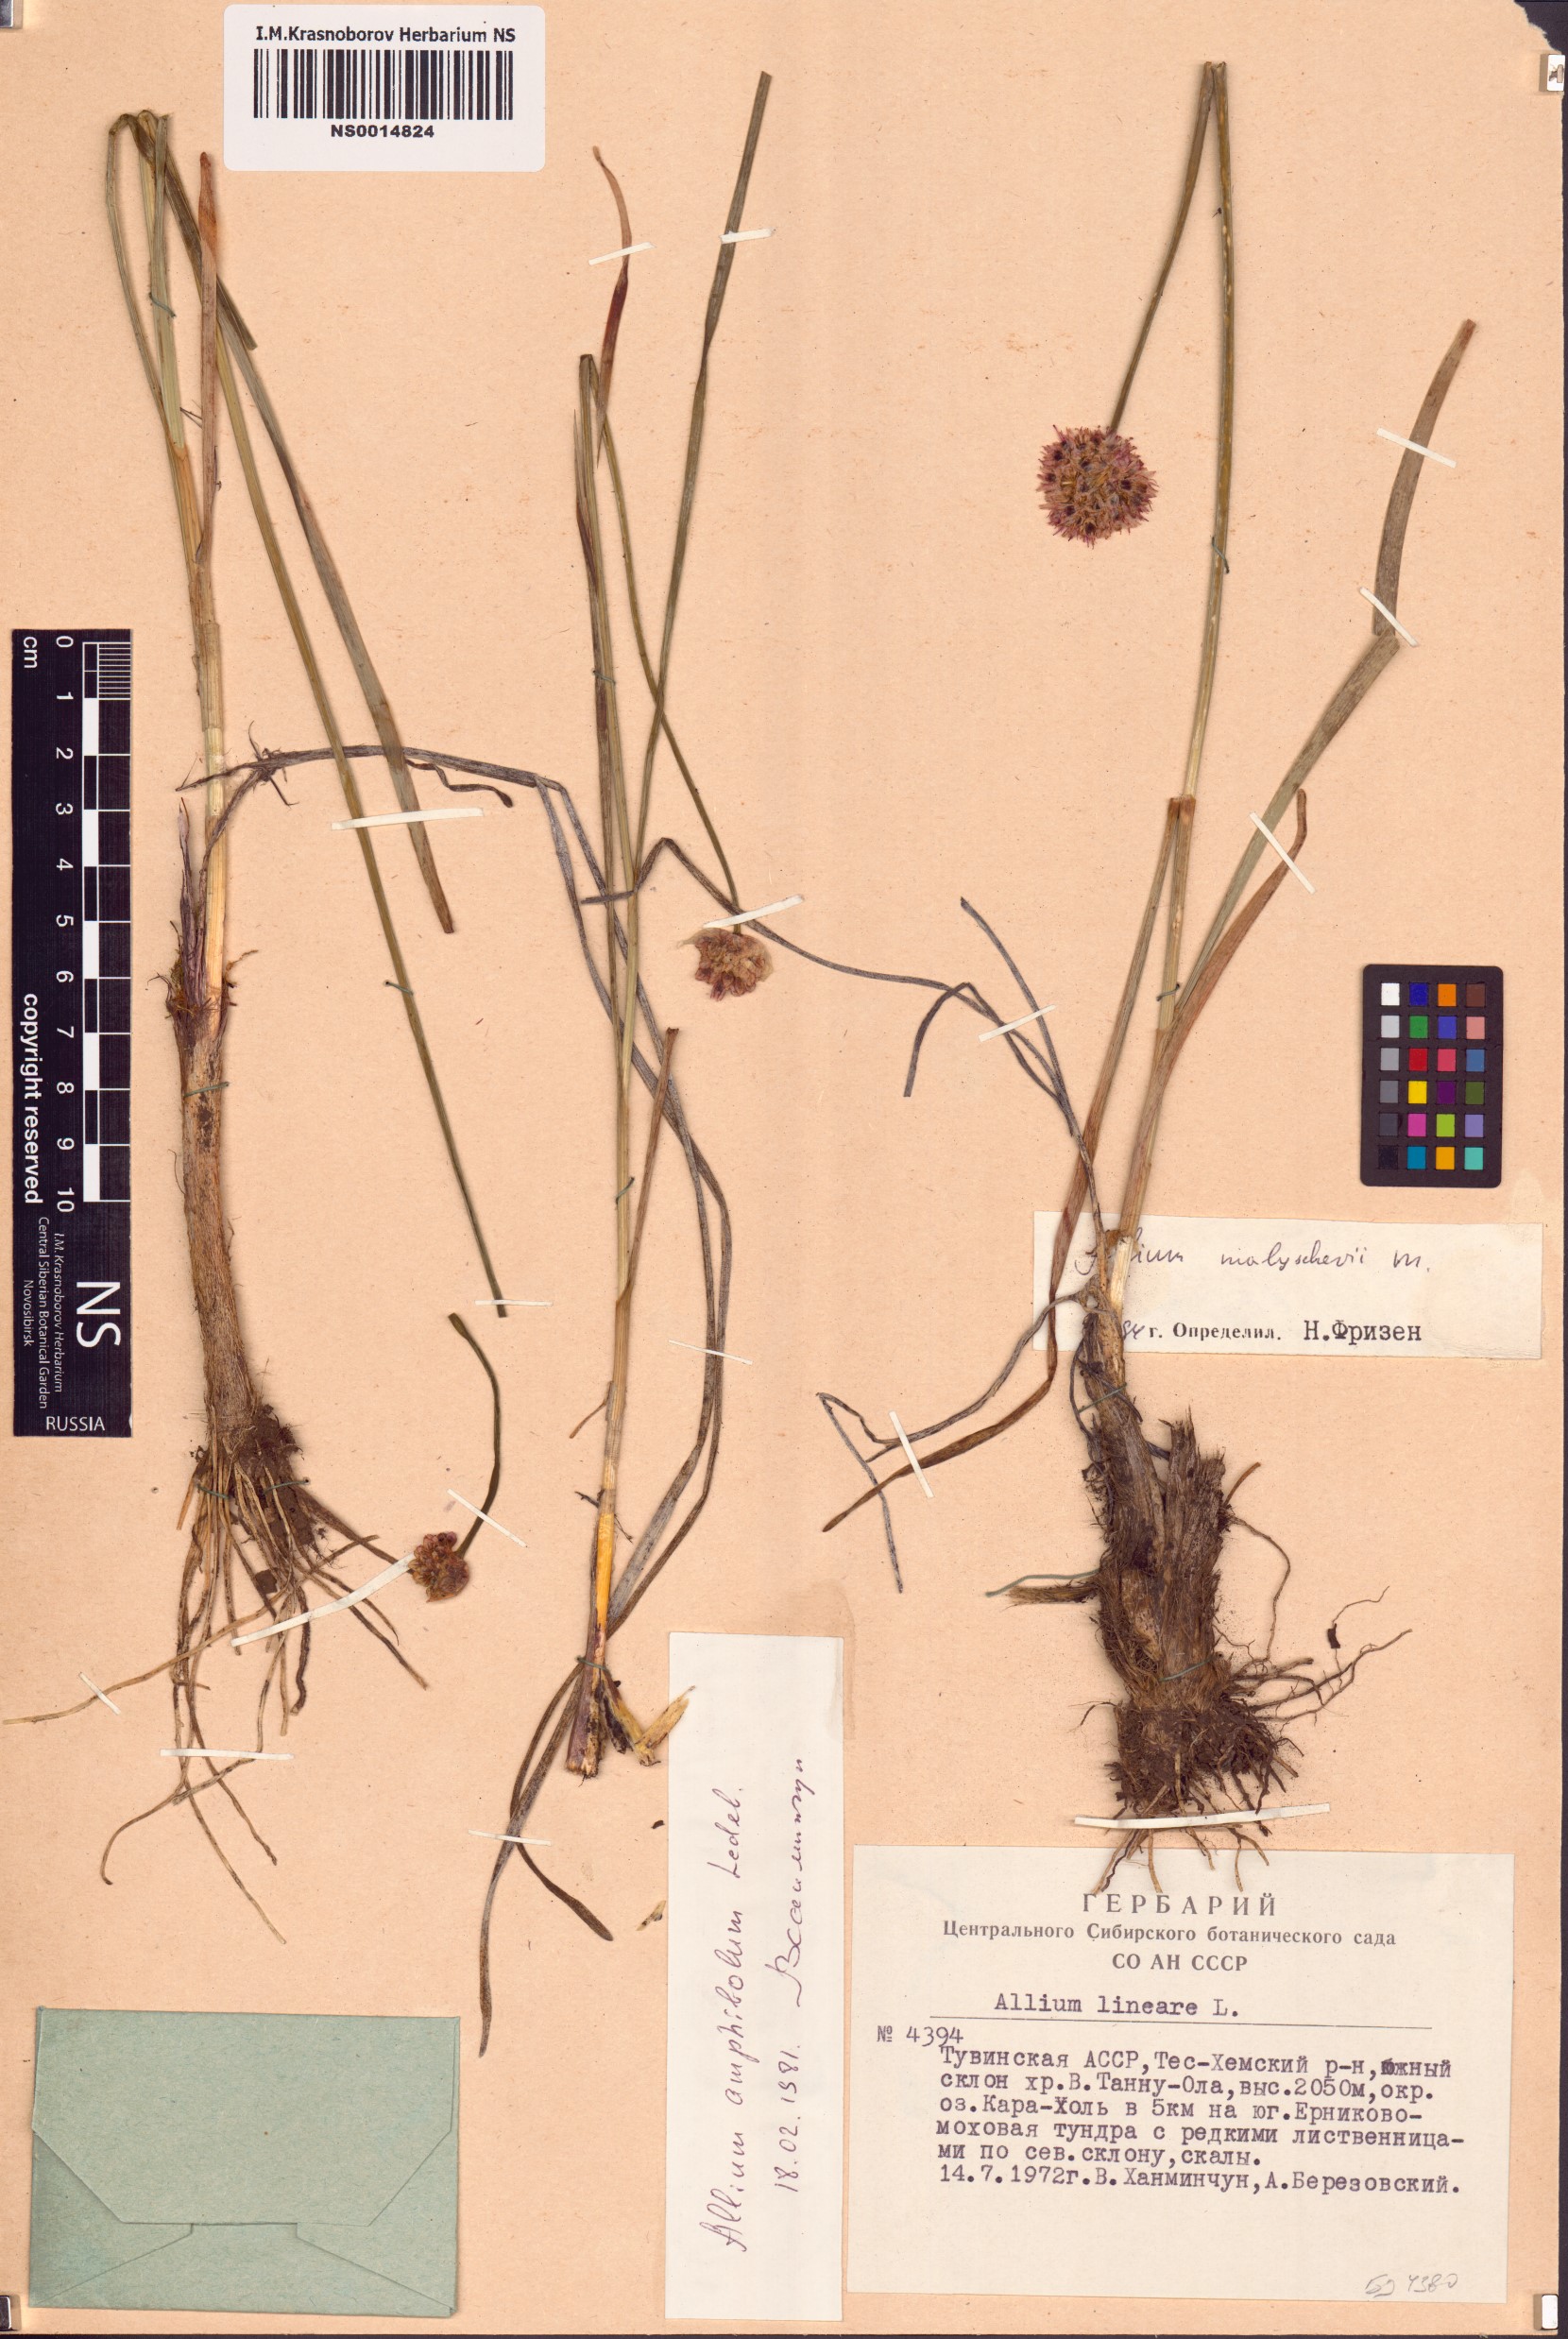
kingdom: Plantae
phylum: Tracheophyta
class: Liliopsida
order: Asparagales
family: Amaryllidaceae
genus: Allium
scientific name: Allium malyschevii
